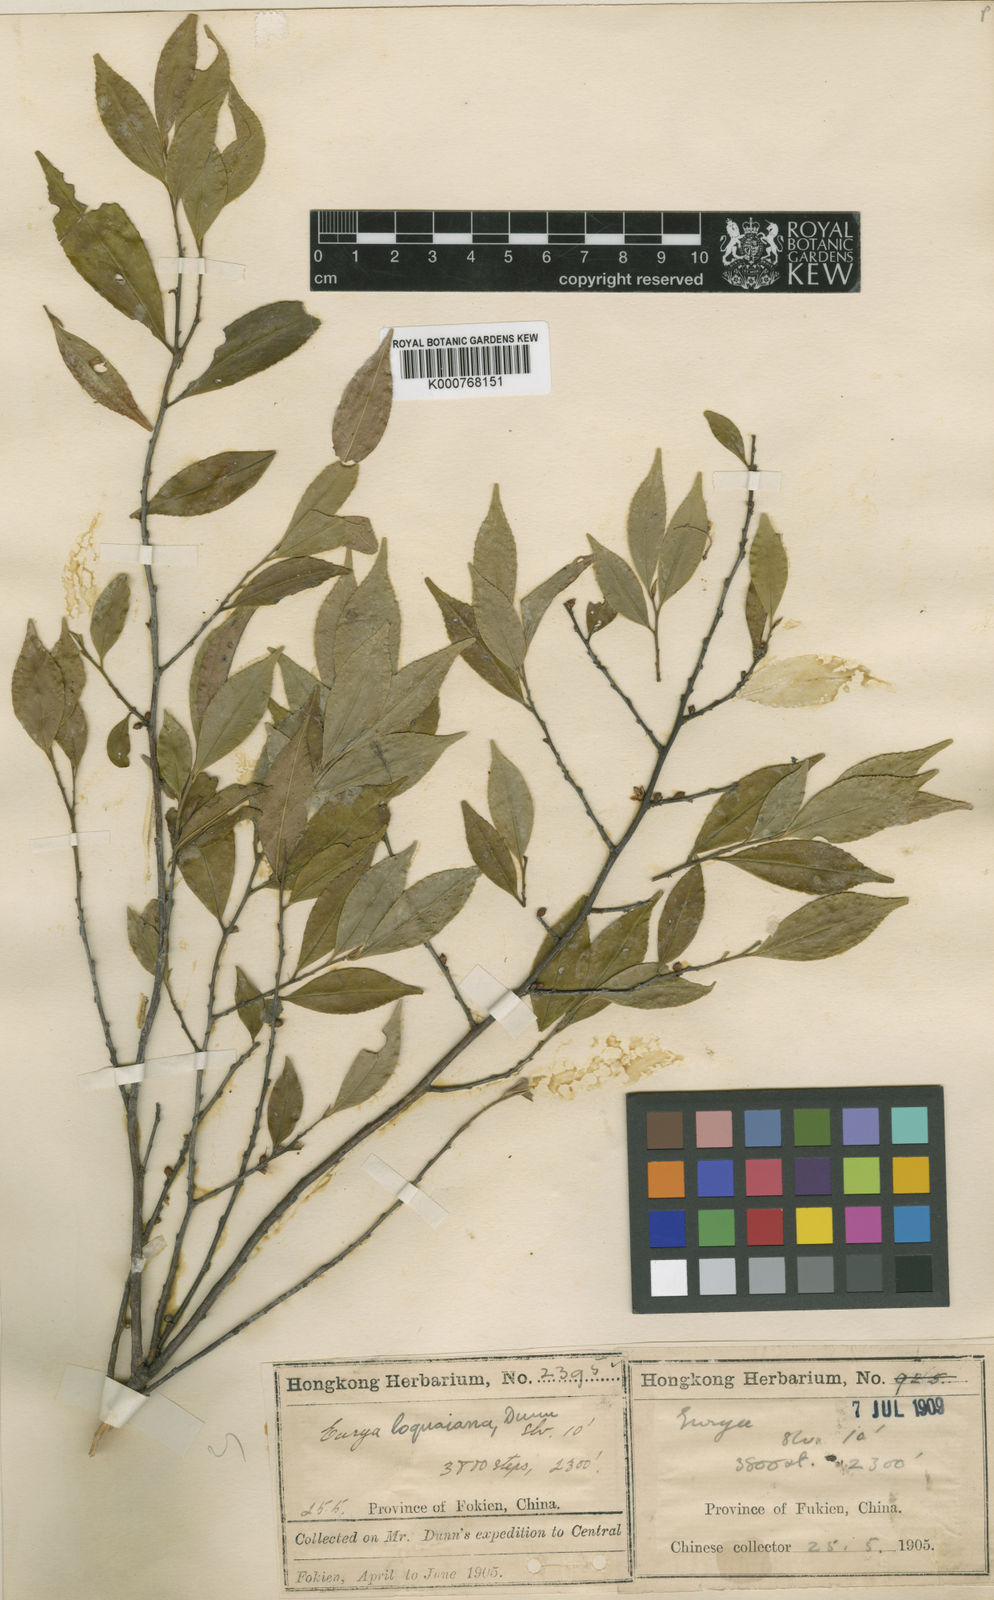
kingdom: Plantae
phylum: Tracheophyta
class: Magnoliopsida
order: Ericales
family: Pentaphylacaceae
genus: Eurya
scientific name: Eurya loquaiana
